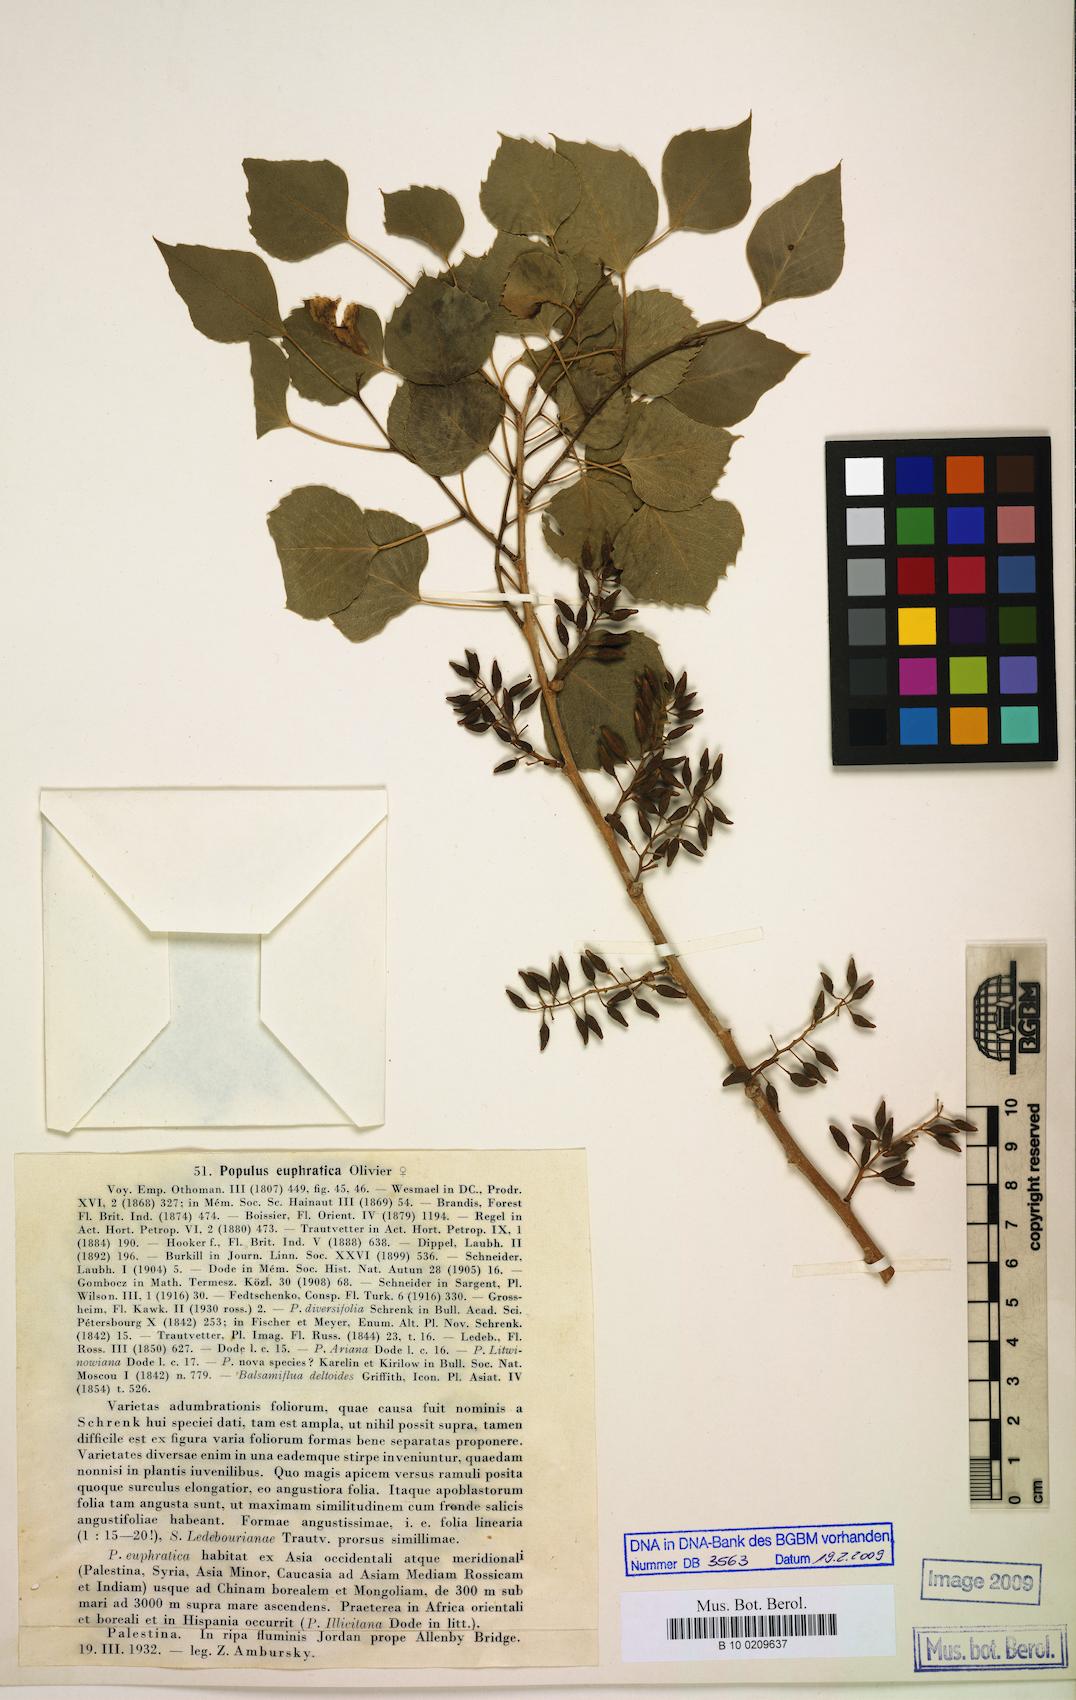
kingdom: Plantae
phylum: Tracheophyta
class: Magnoliopsida
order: Malpighiales
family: Salicaceae
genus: Populus
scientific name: Populus euphratica
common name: Euphrates poplar
